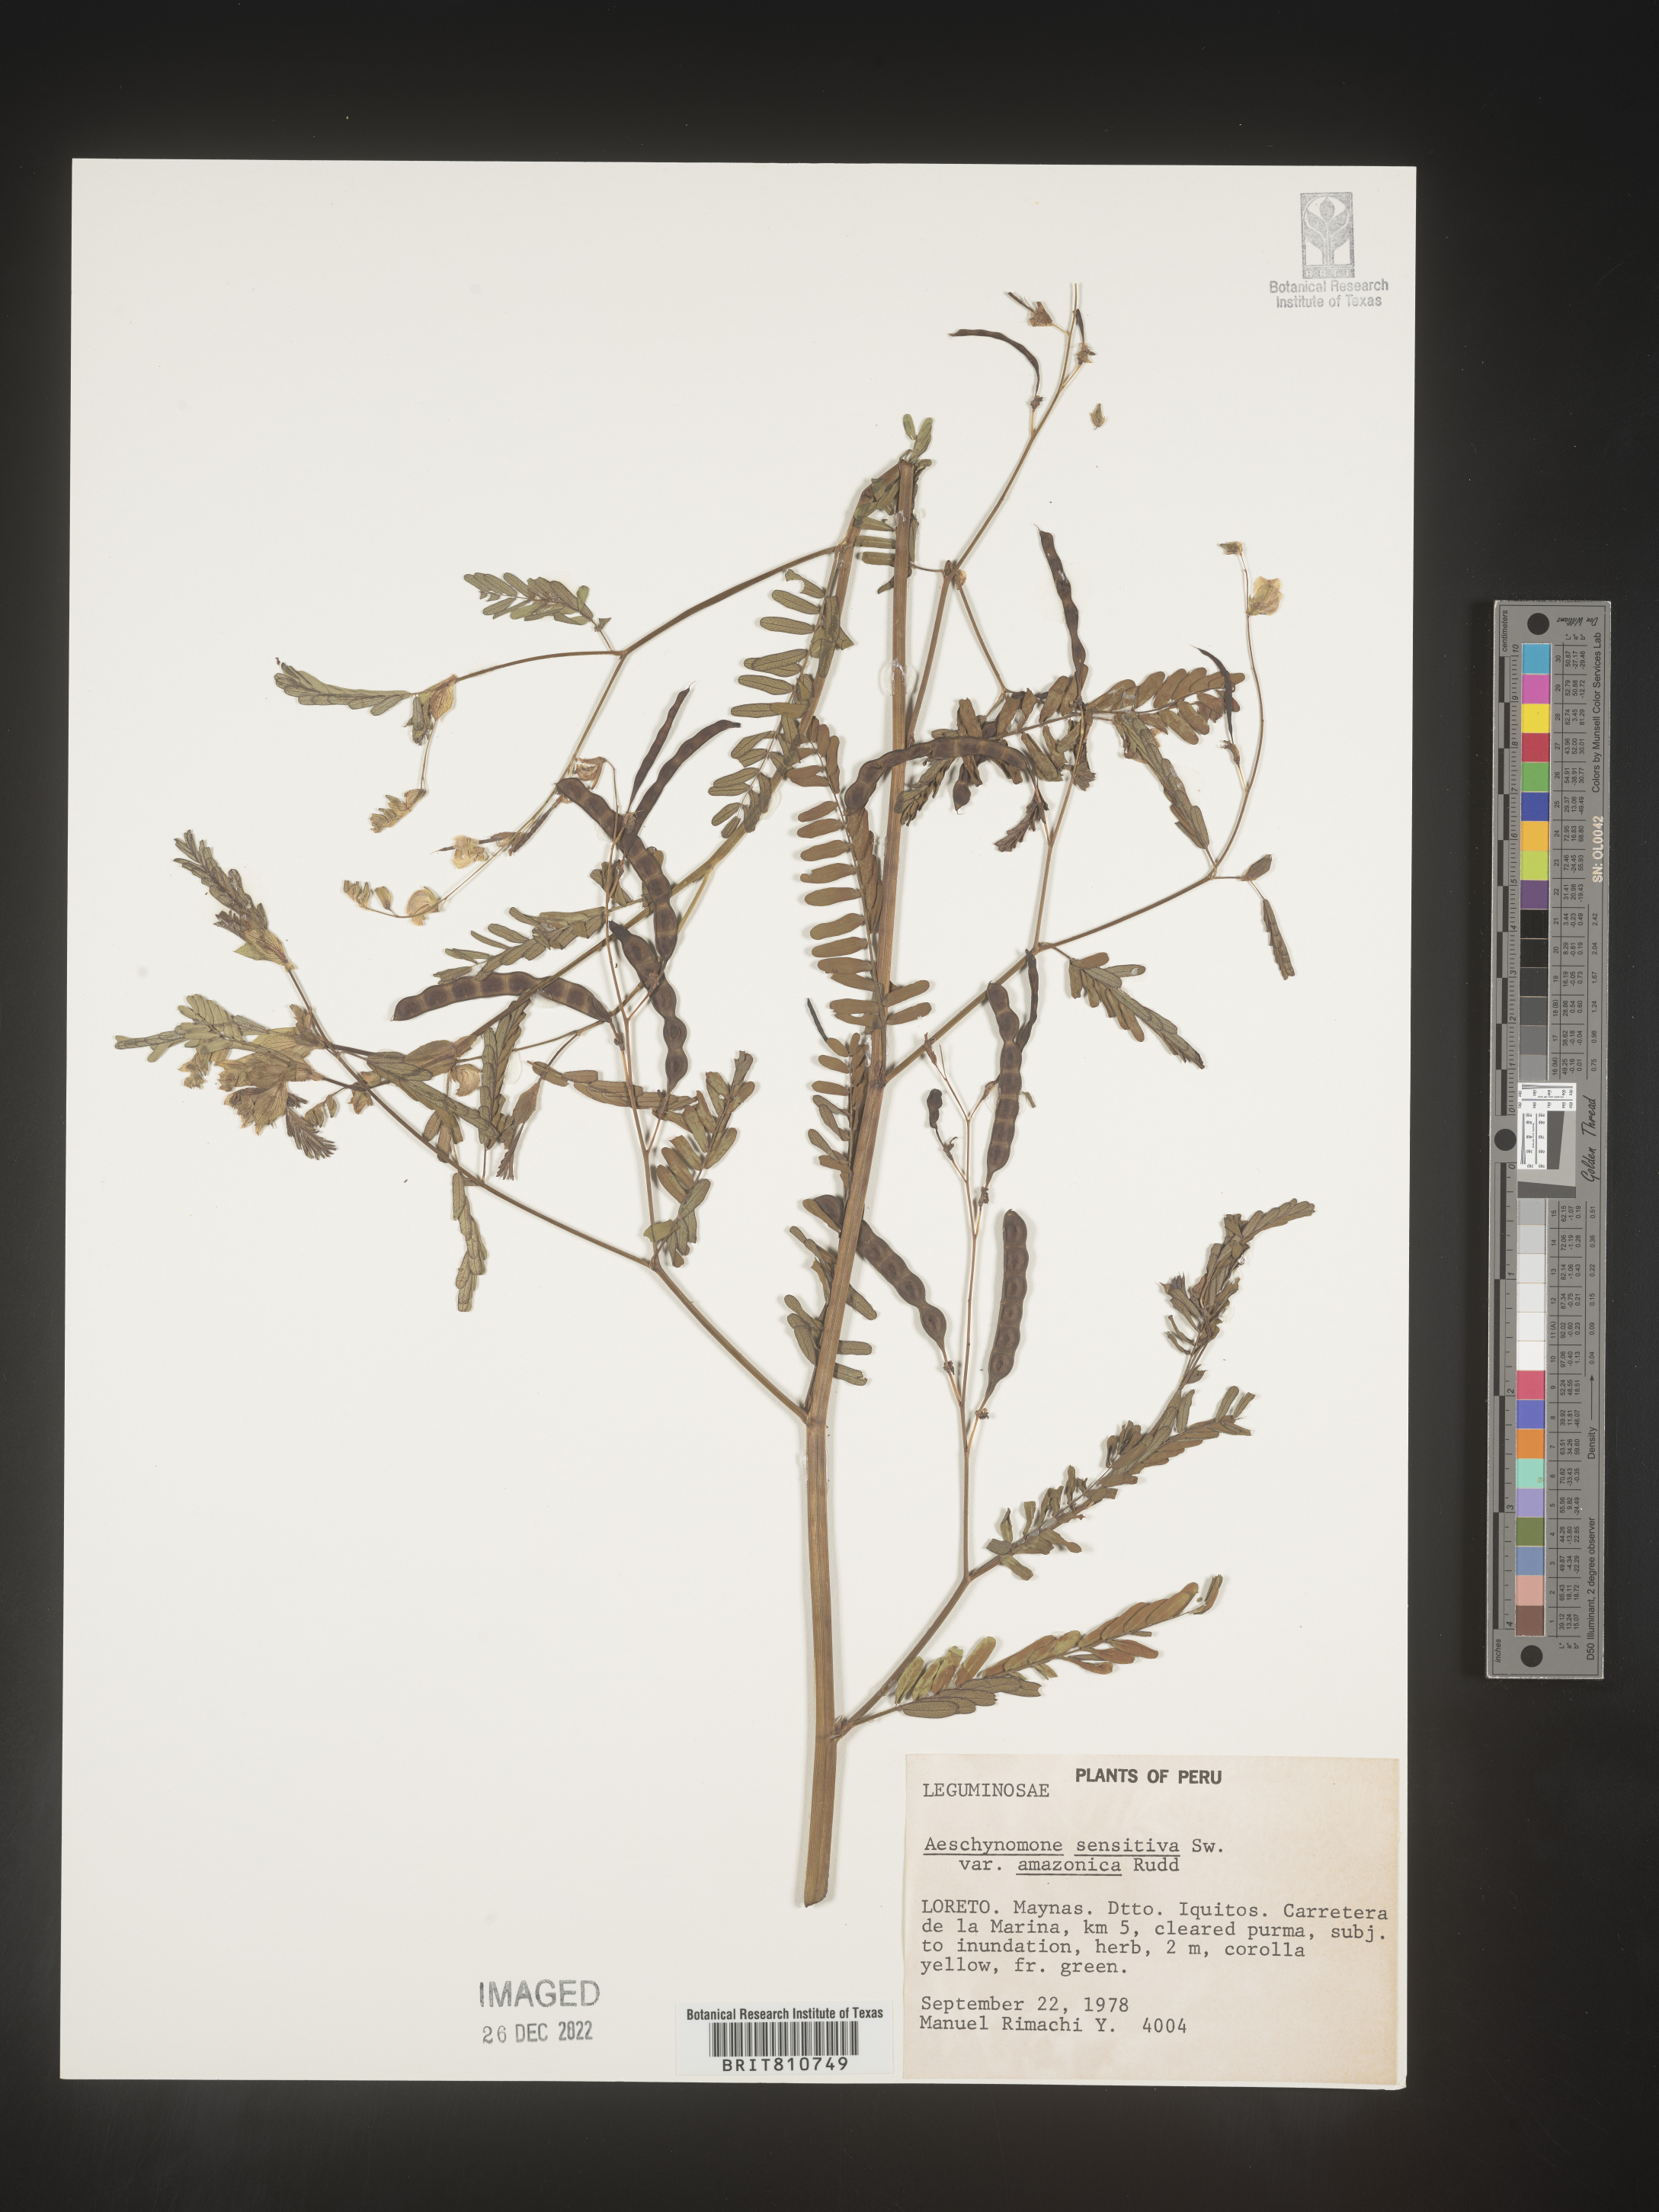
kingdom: Plantae
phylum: Tracheophyta
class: Magnoliopsida
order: Fabales
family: Fabaceae
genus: Aeschynomene
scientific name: Aeschynomene
